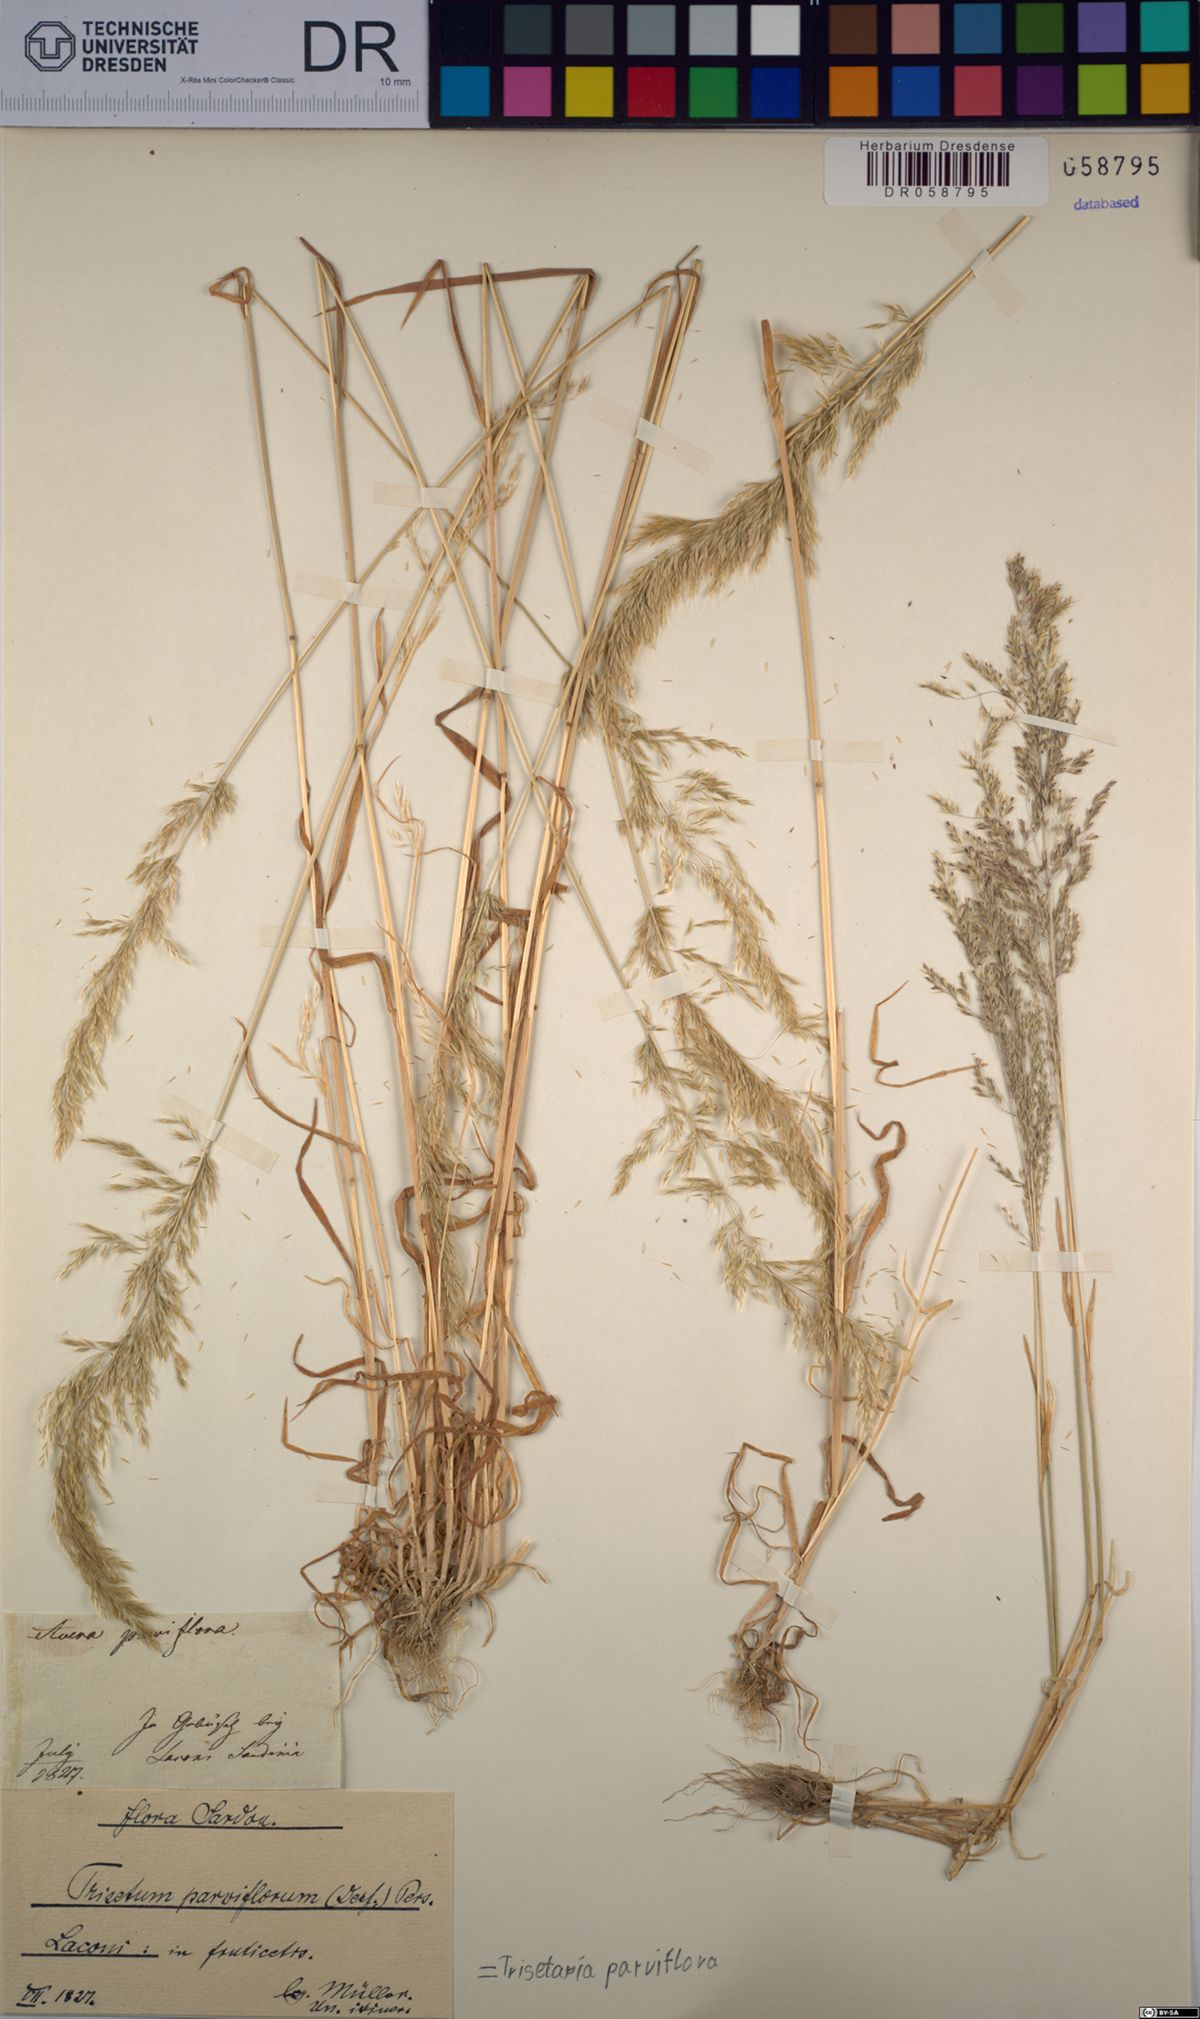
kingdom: Plantae
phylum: Tracheophyta
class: Liliopsida
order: Poales
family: Poaceae
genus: Trisetaria
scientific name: Trisetaria parviflora
